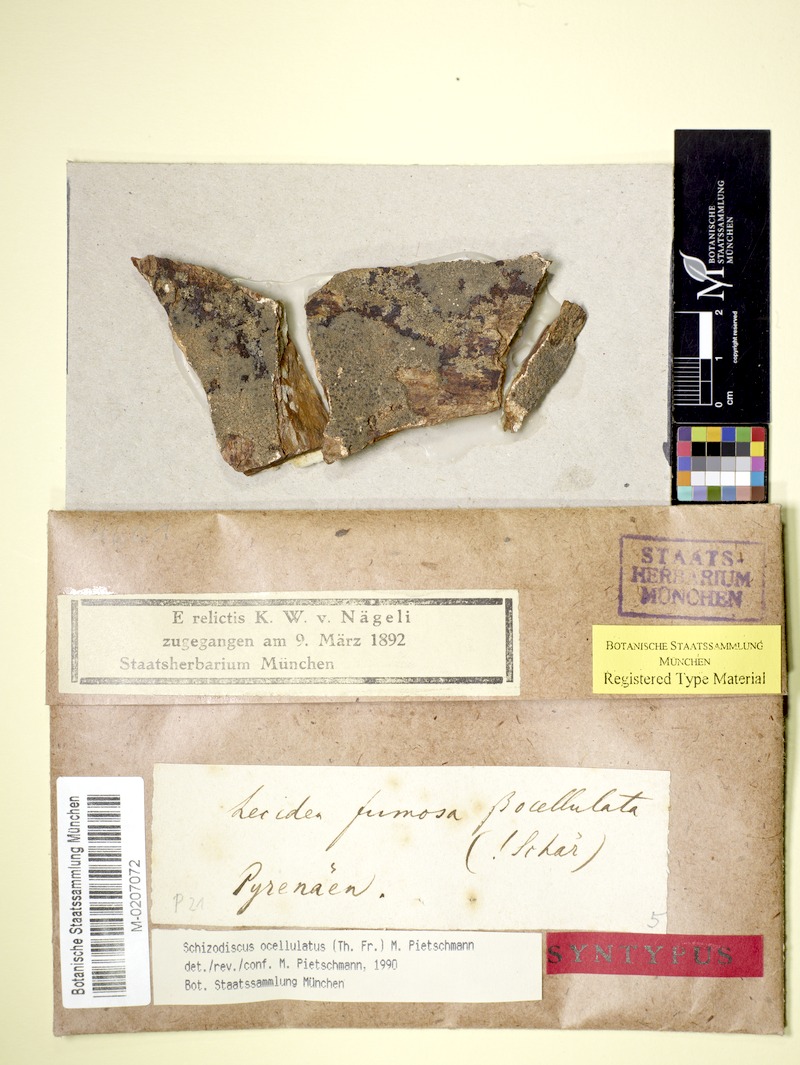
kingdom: Fungi
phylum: Ascomycota
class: Lecanoromycetes
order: Lecideales
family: Lecideaceae
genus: Lecidea
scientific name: Lecidea psoroides
